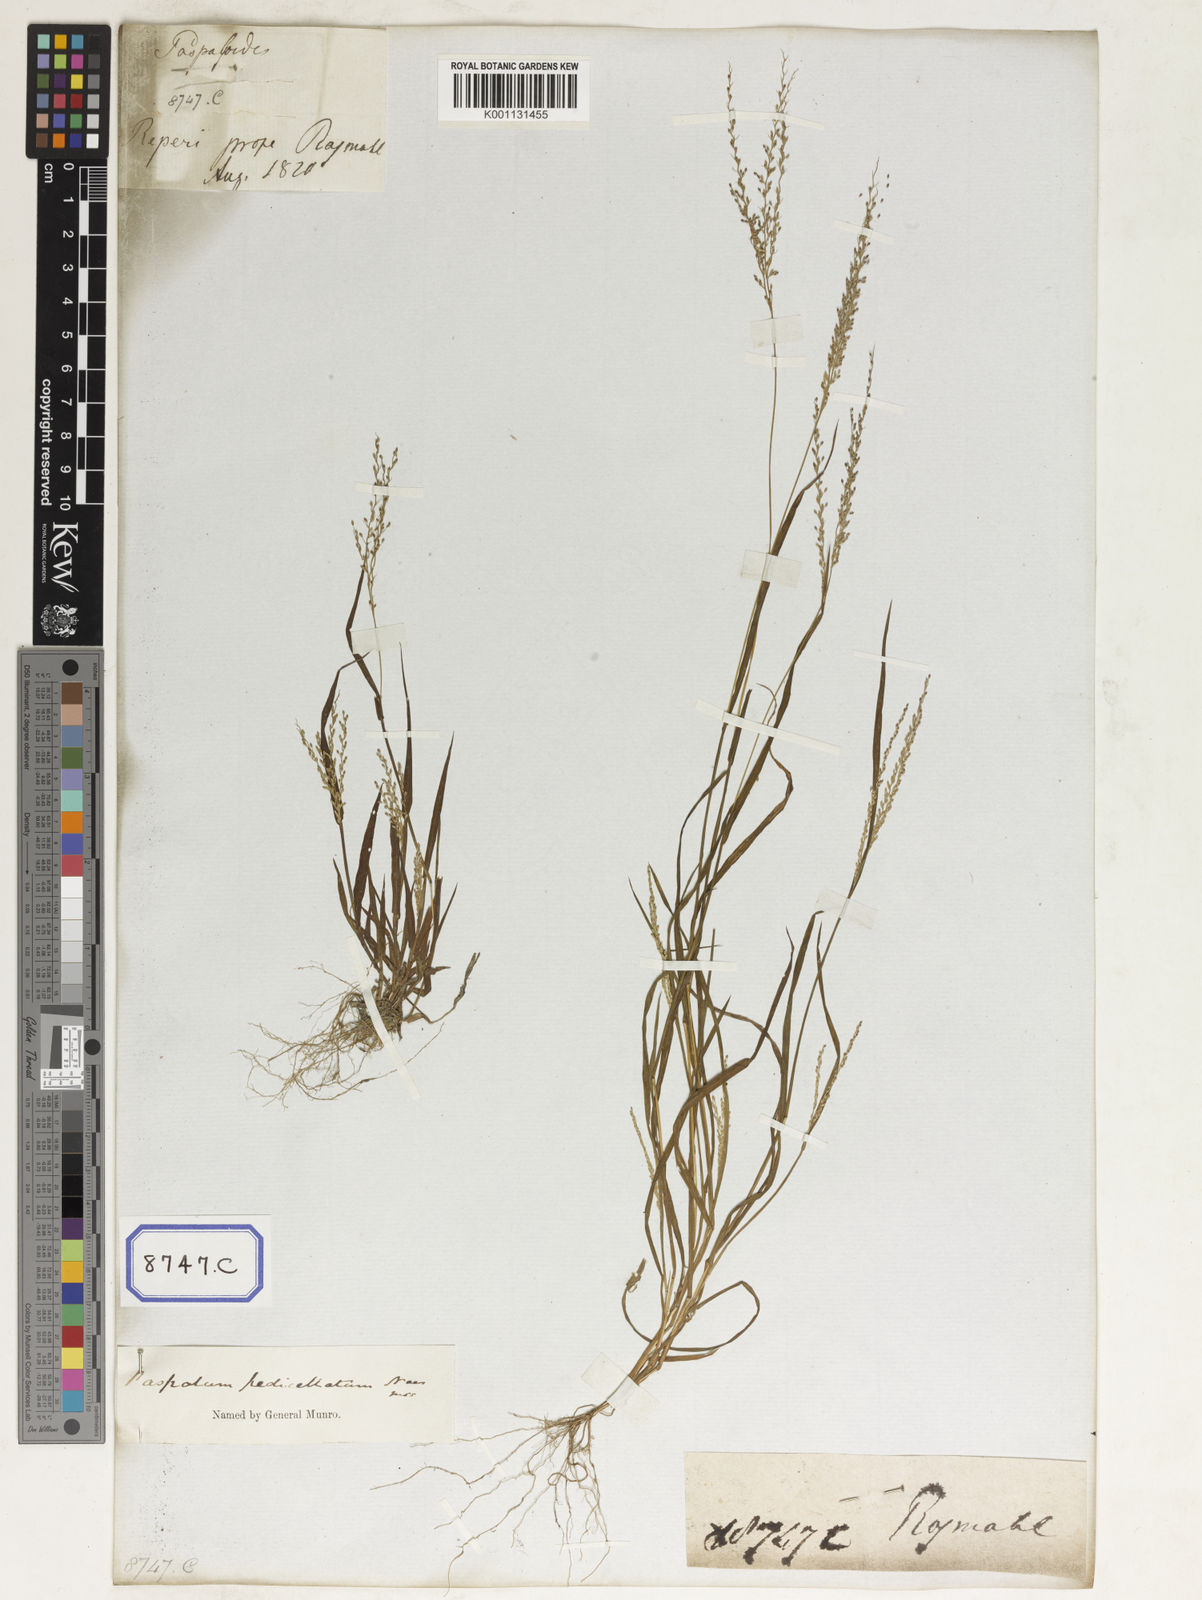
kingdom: Plantae
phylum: Tracheophyta
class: Liliopsida
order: Poales
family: Poaceae
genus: Panicum
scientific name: Panicum
